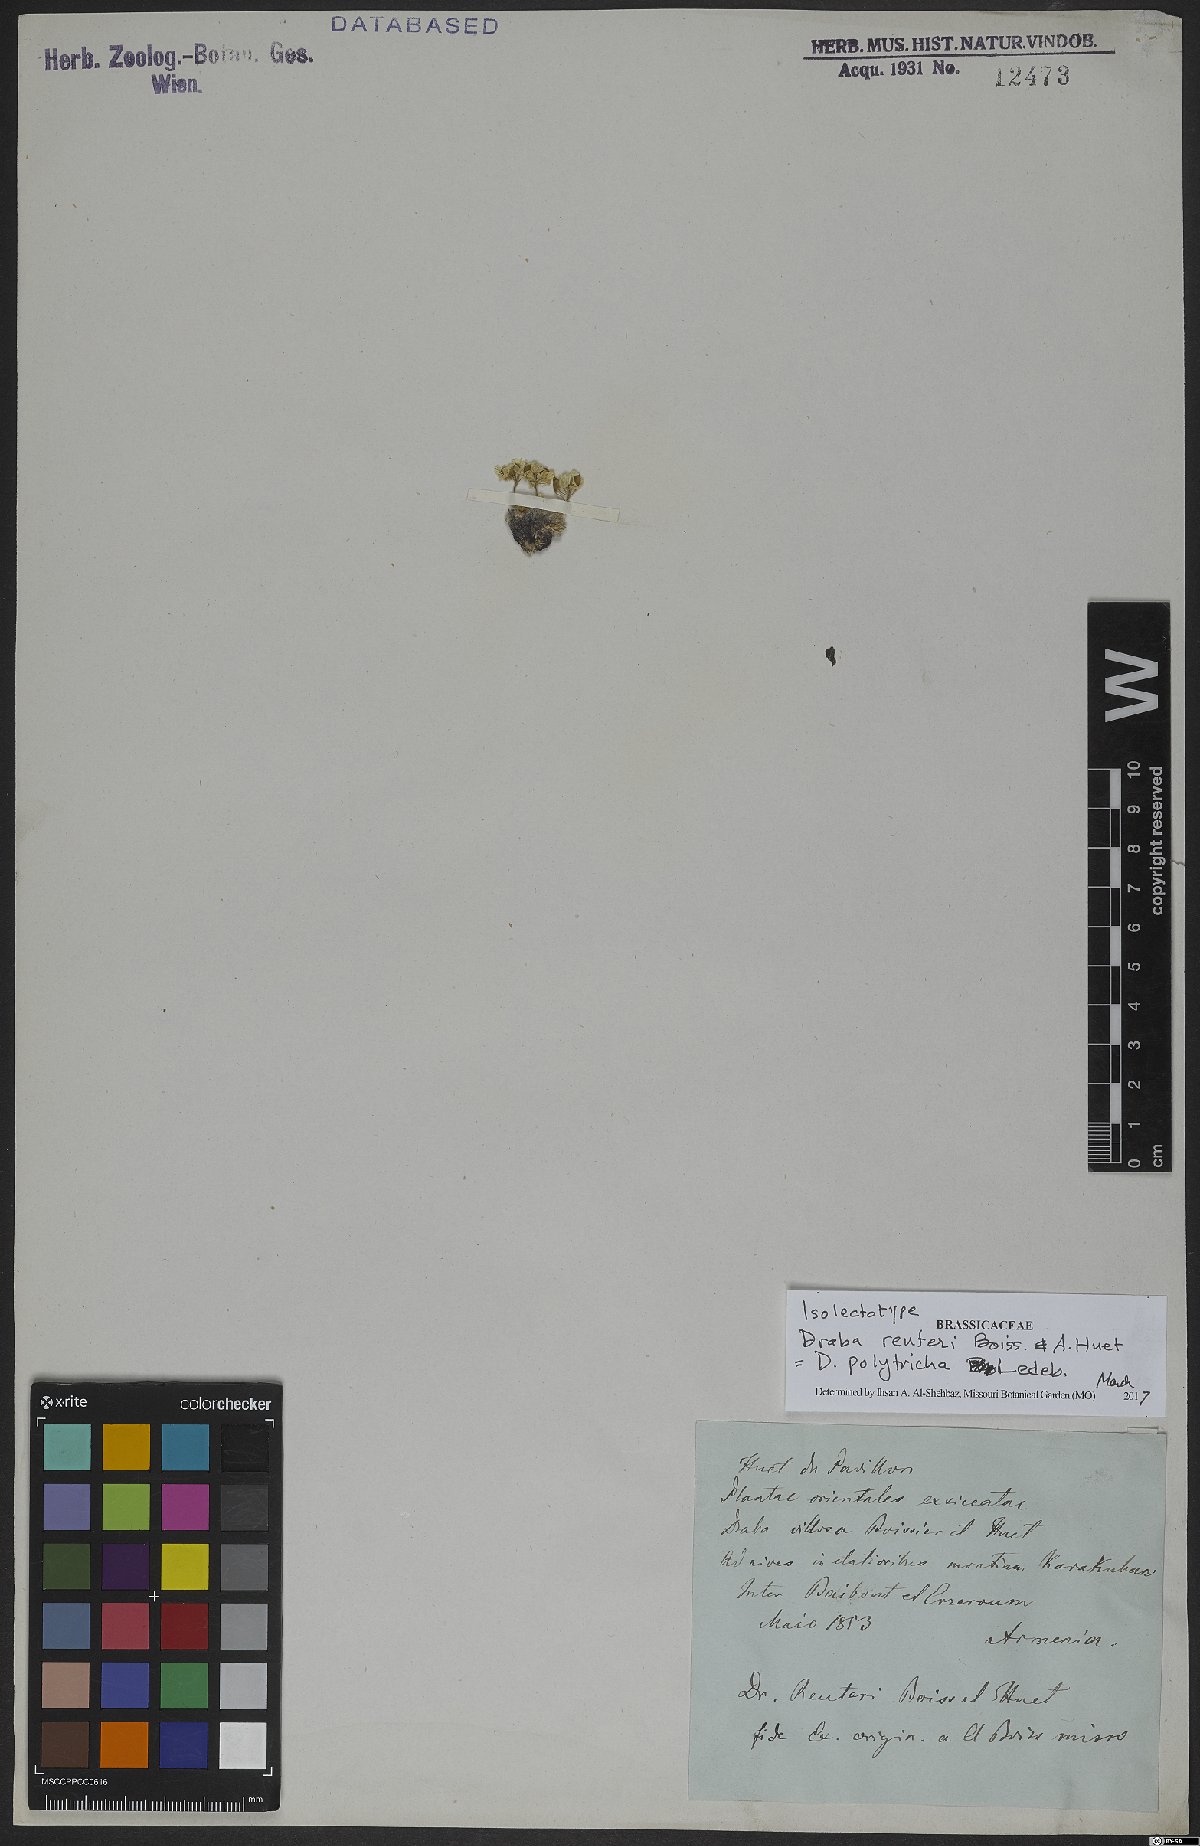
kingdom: Plantae
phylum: Tracheophyta
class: Magnoliopsida
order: Brassicales
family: Brassicaceae
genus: Draba
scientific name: Draba polytricha
